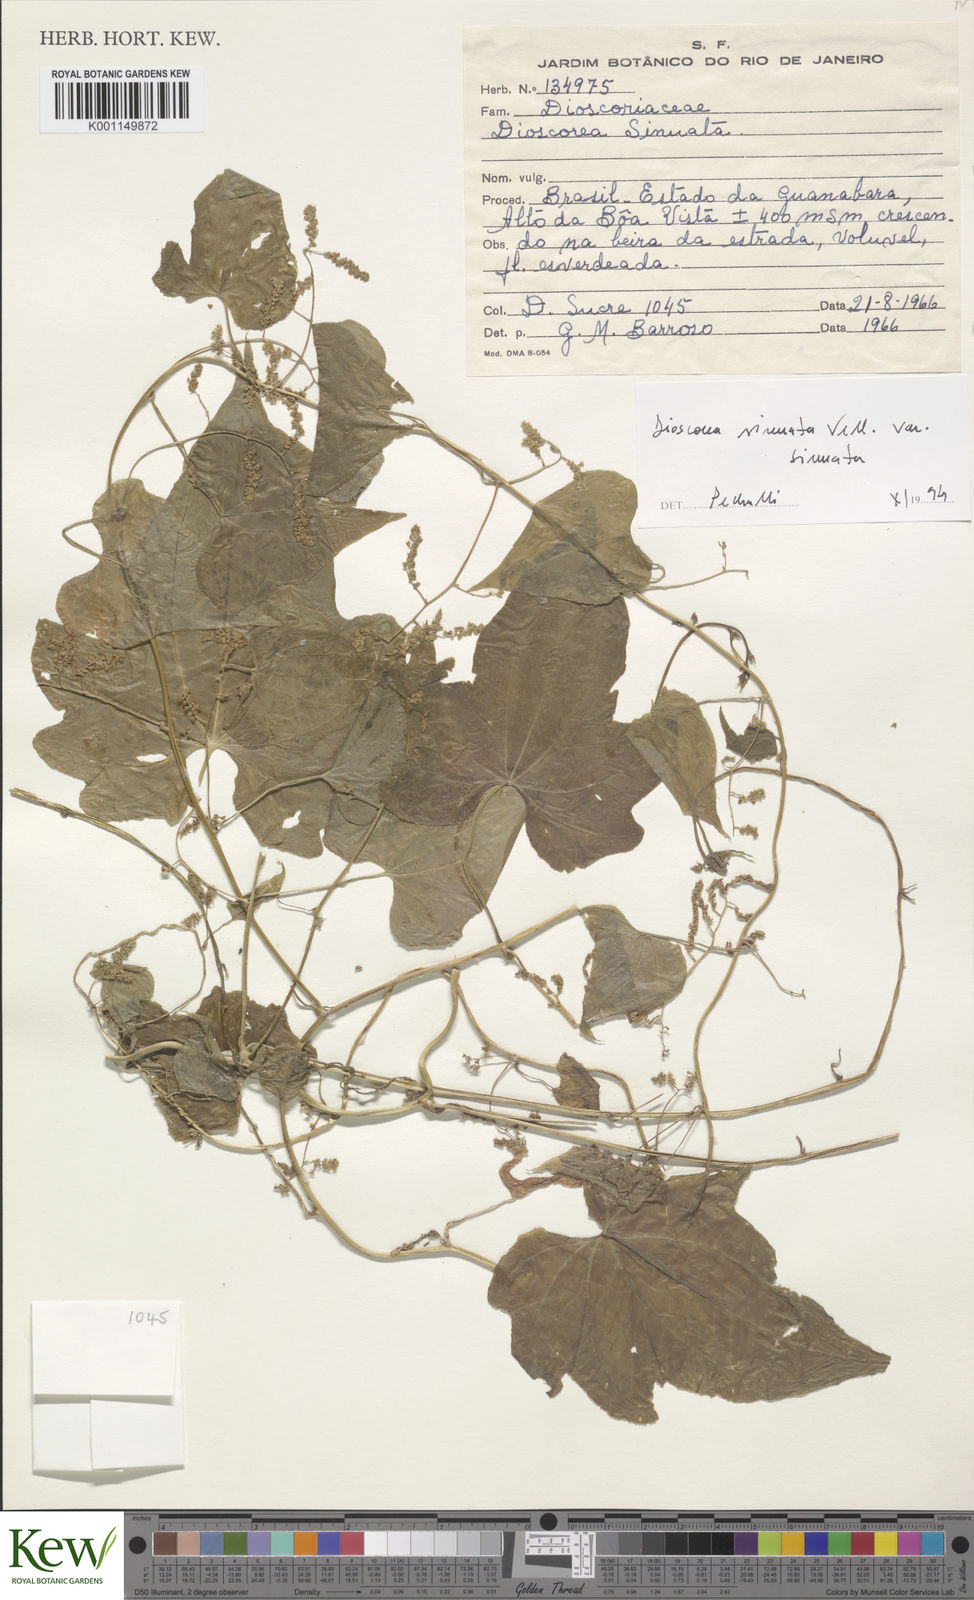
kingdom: Plantae
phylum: Tracheophyta
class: Liliopsida
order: Dioscoreales
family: Dioscoreaceae
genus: Dioscorea
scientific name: Dioscorea sinuata
